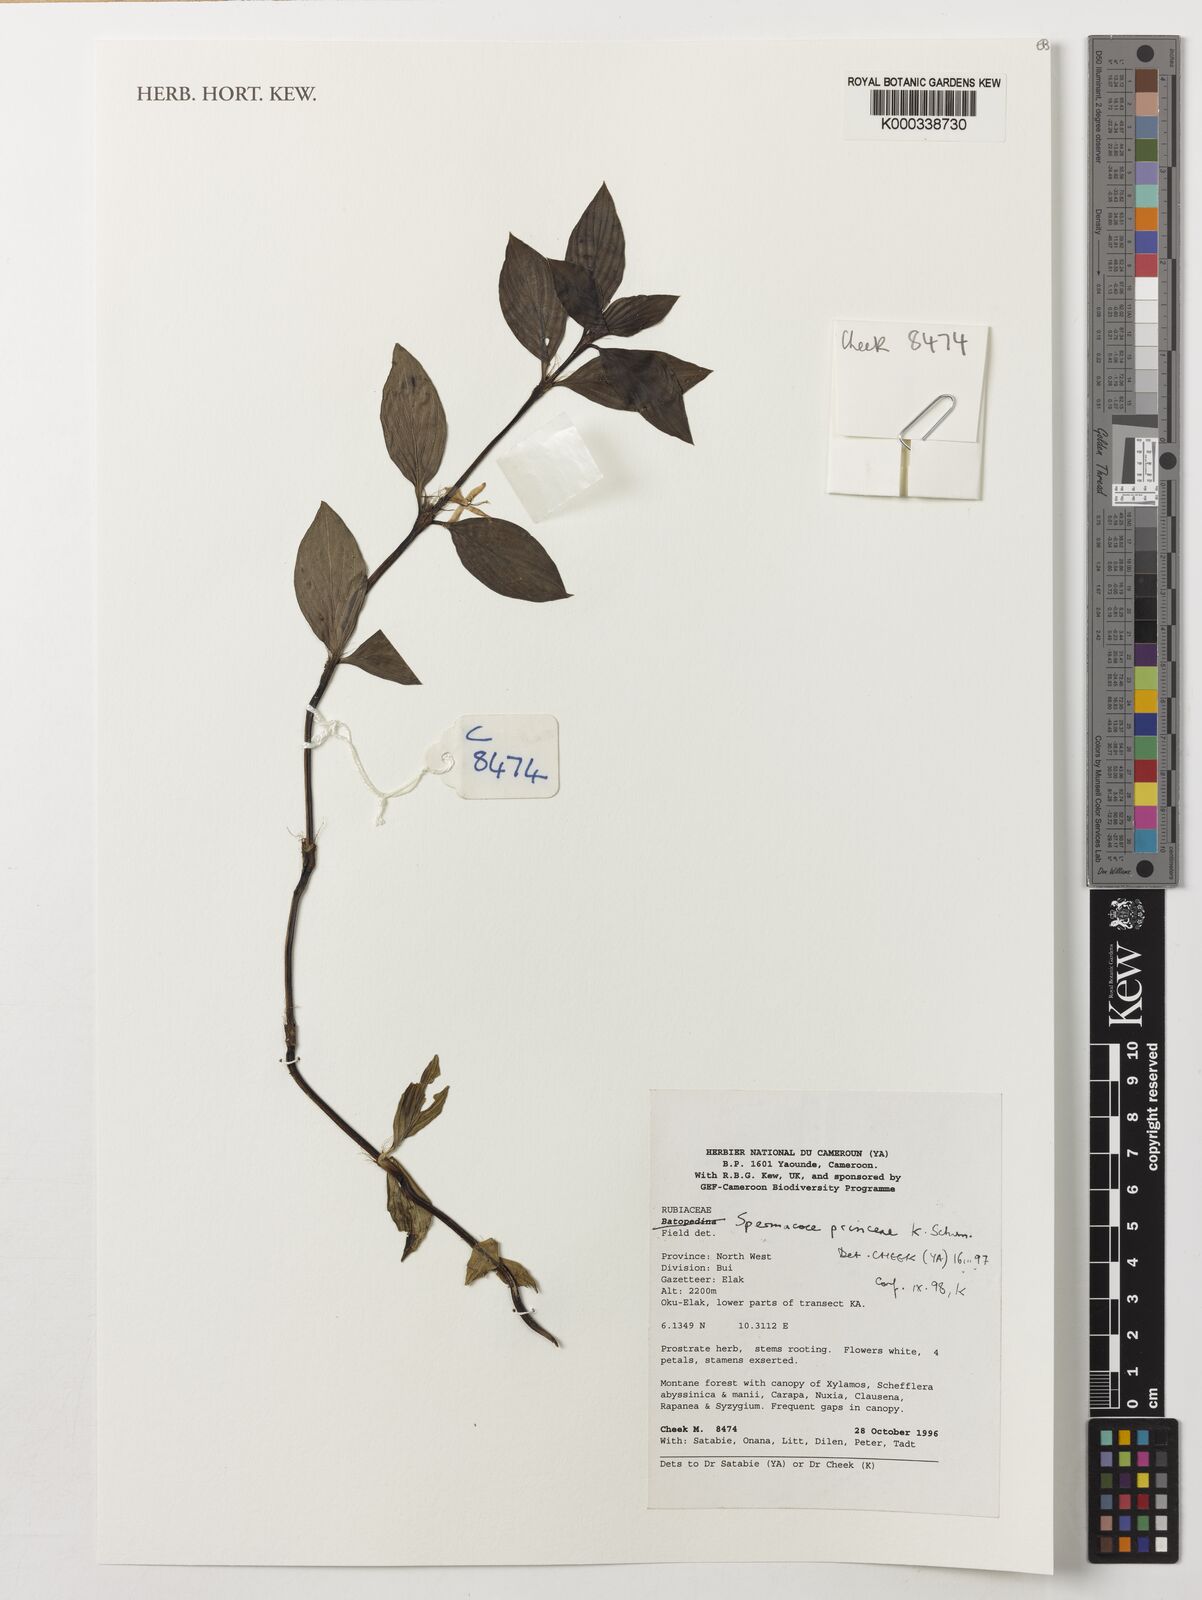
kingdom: Plantae
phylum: Tracheophyta
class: Magnoliopsida
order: Gentianales
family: Rubiaceae
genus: Spermacoce
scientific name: Spermacoce princeae
